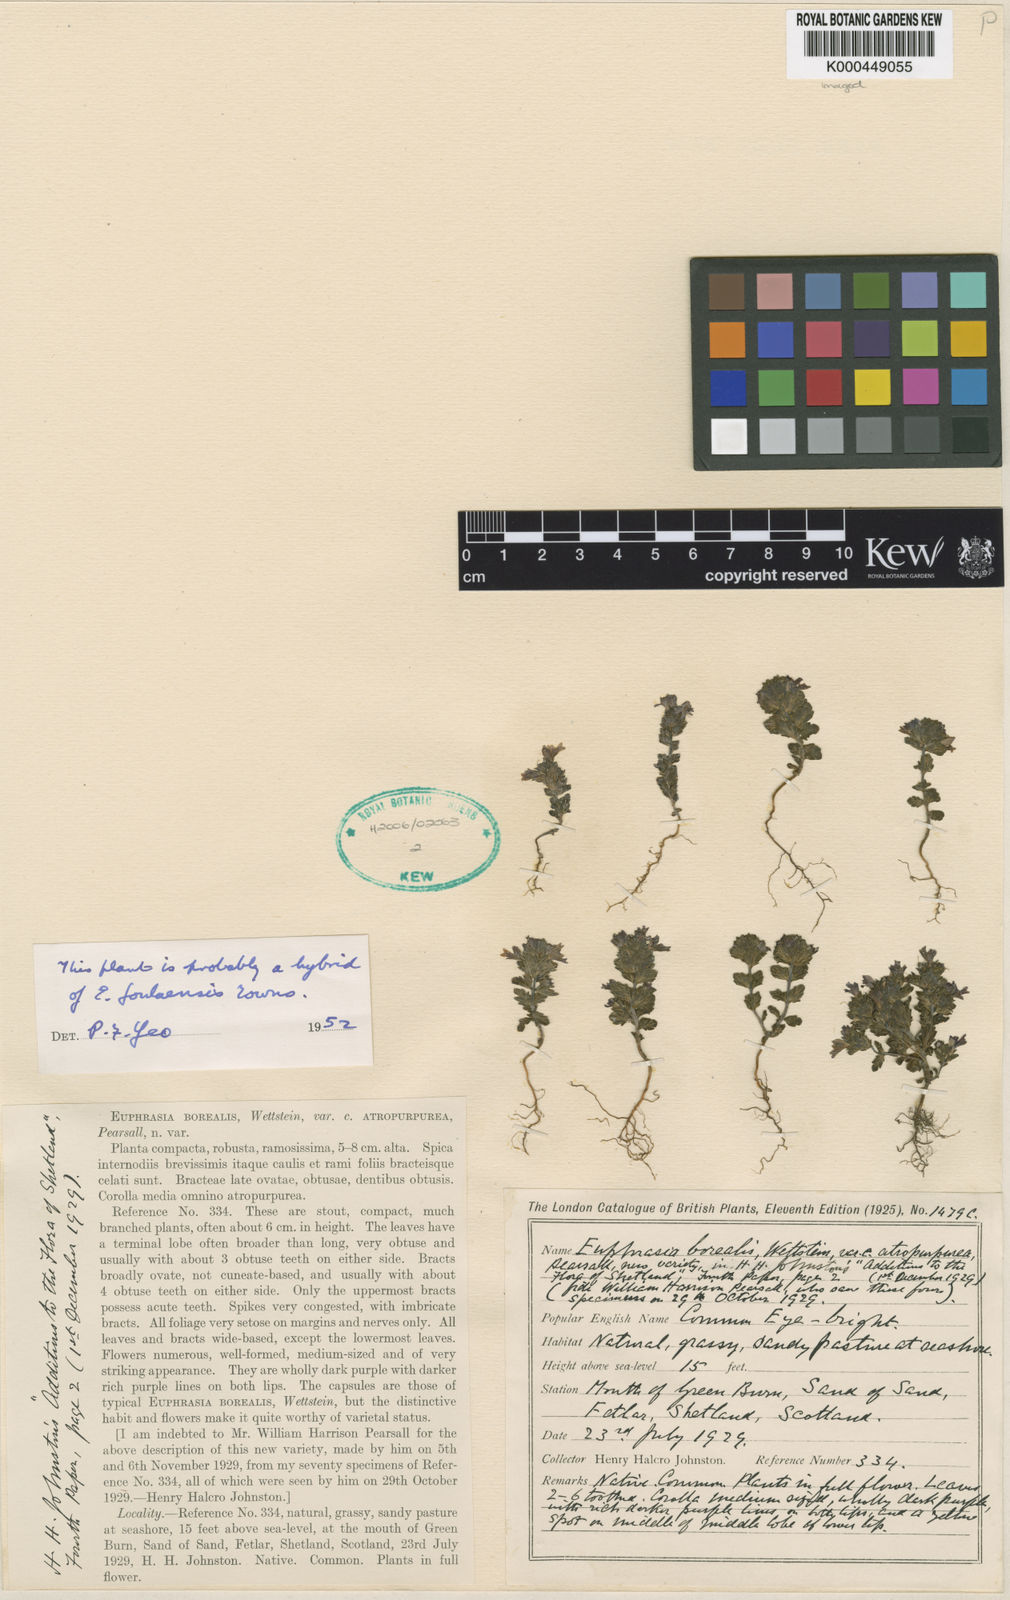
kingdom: Plantae
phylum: Tracheophyta
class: Magnoliopsida
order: Lamiales
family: Orobanchaceae
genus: Euphrasia
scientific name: Euphrasia arctica
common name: An eyebright
